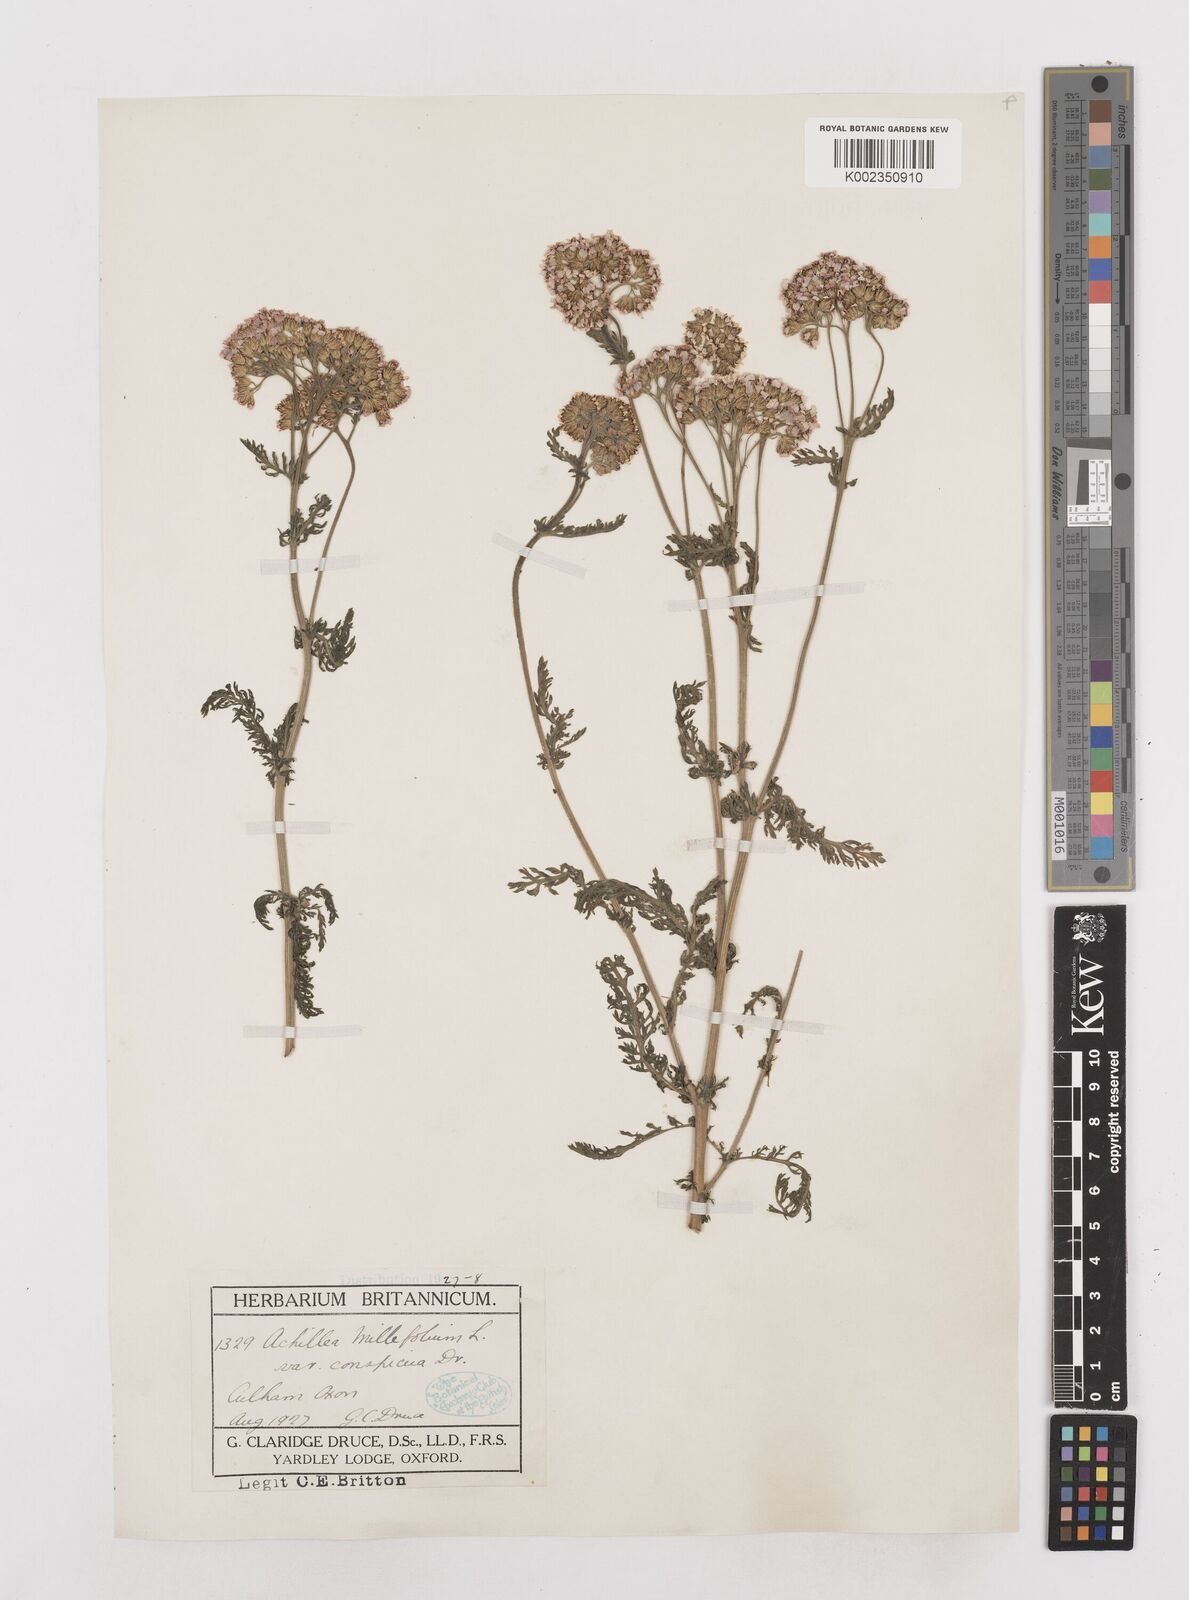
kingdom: Plantae
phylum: Tracheophyta
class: Magnoliopsida
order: Asterales
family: Asteraceae
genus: Achillea
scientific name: Achillea millefolium
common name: Yarrow
